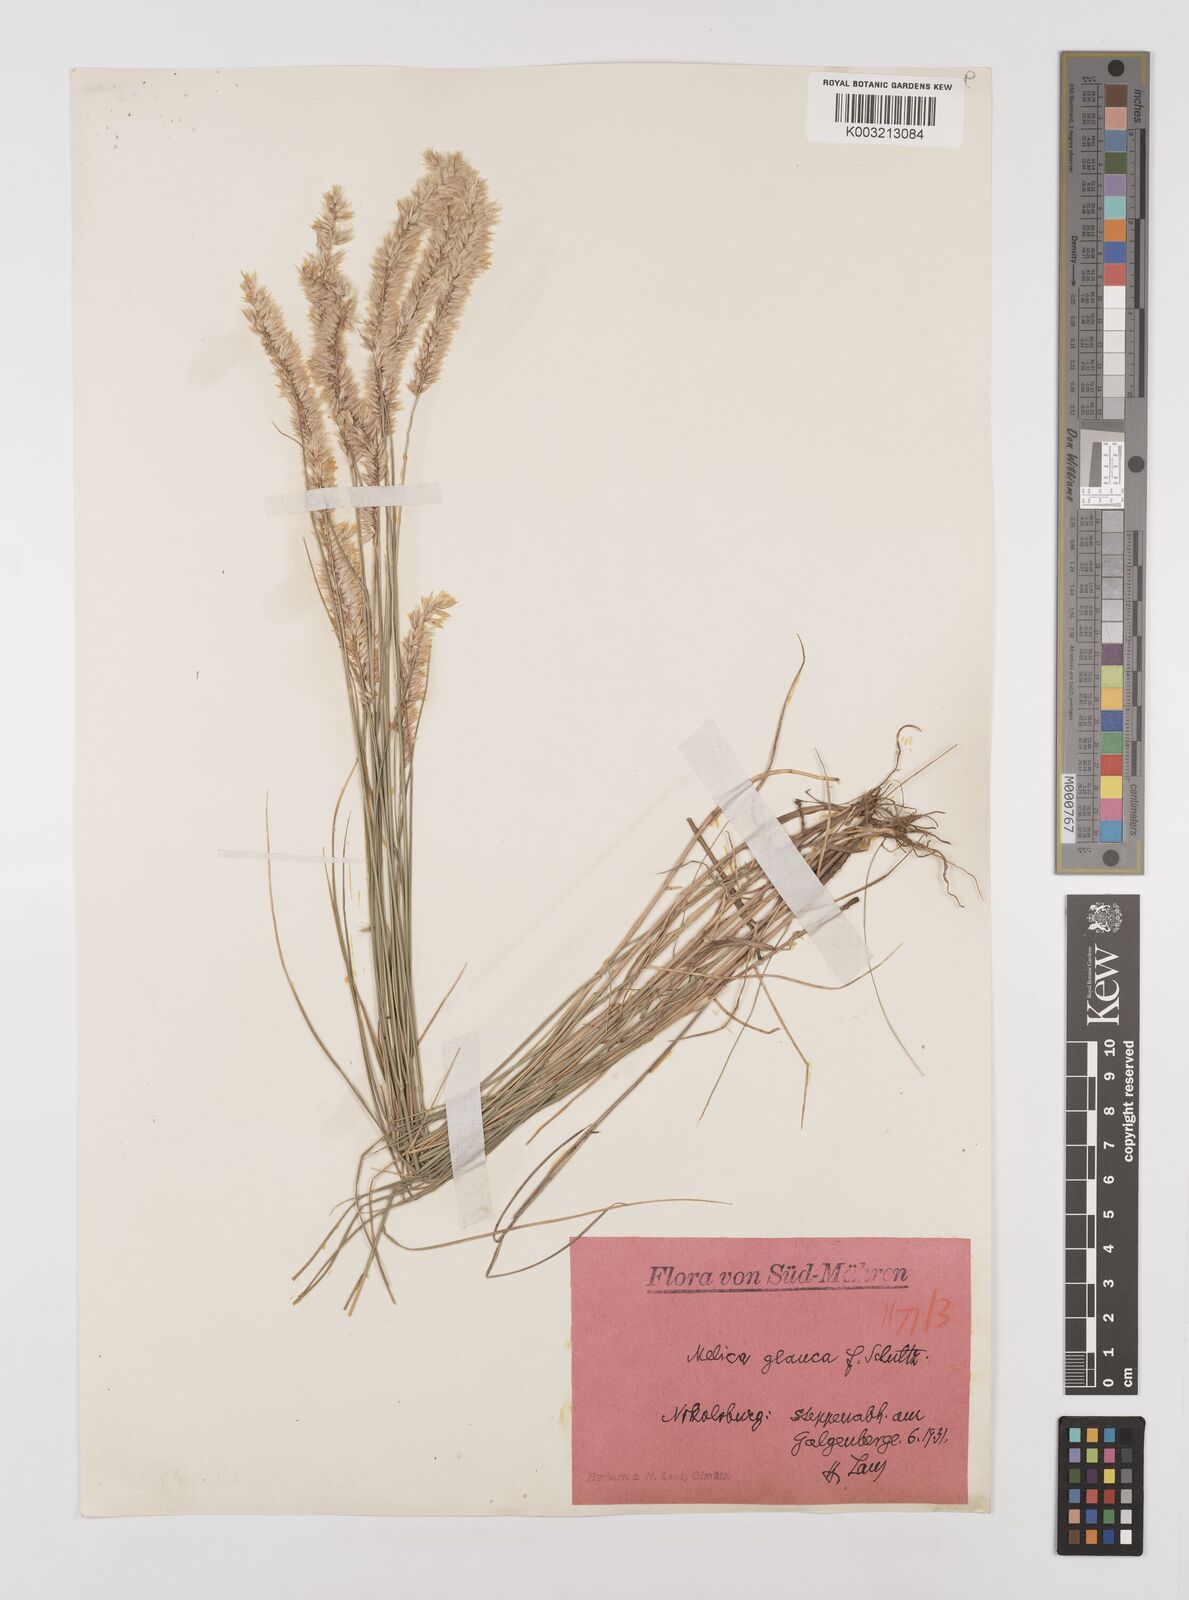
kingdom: Plantae
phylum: Tracheophyta
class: Liliopsida
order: Poales
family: Poaceae
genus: Melica
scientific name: Melica ciliata
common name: Hairy melicgrass
